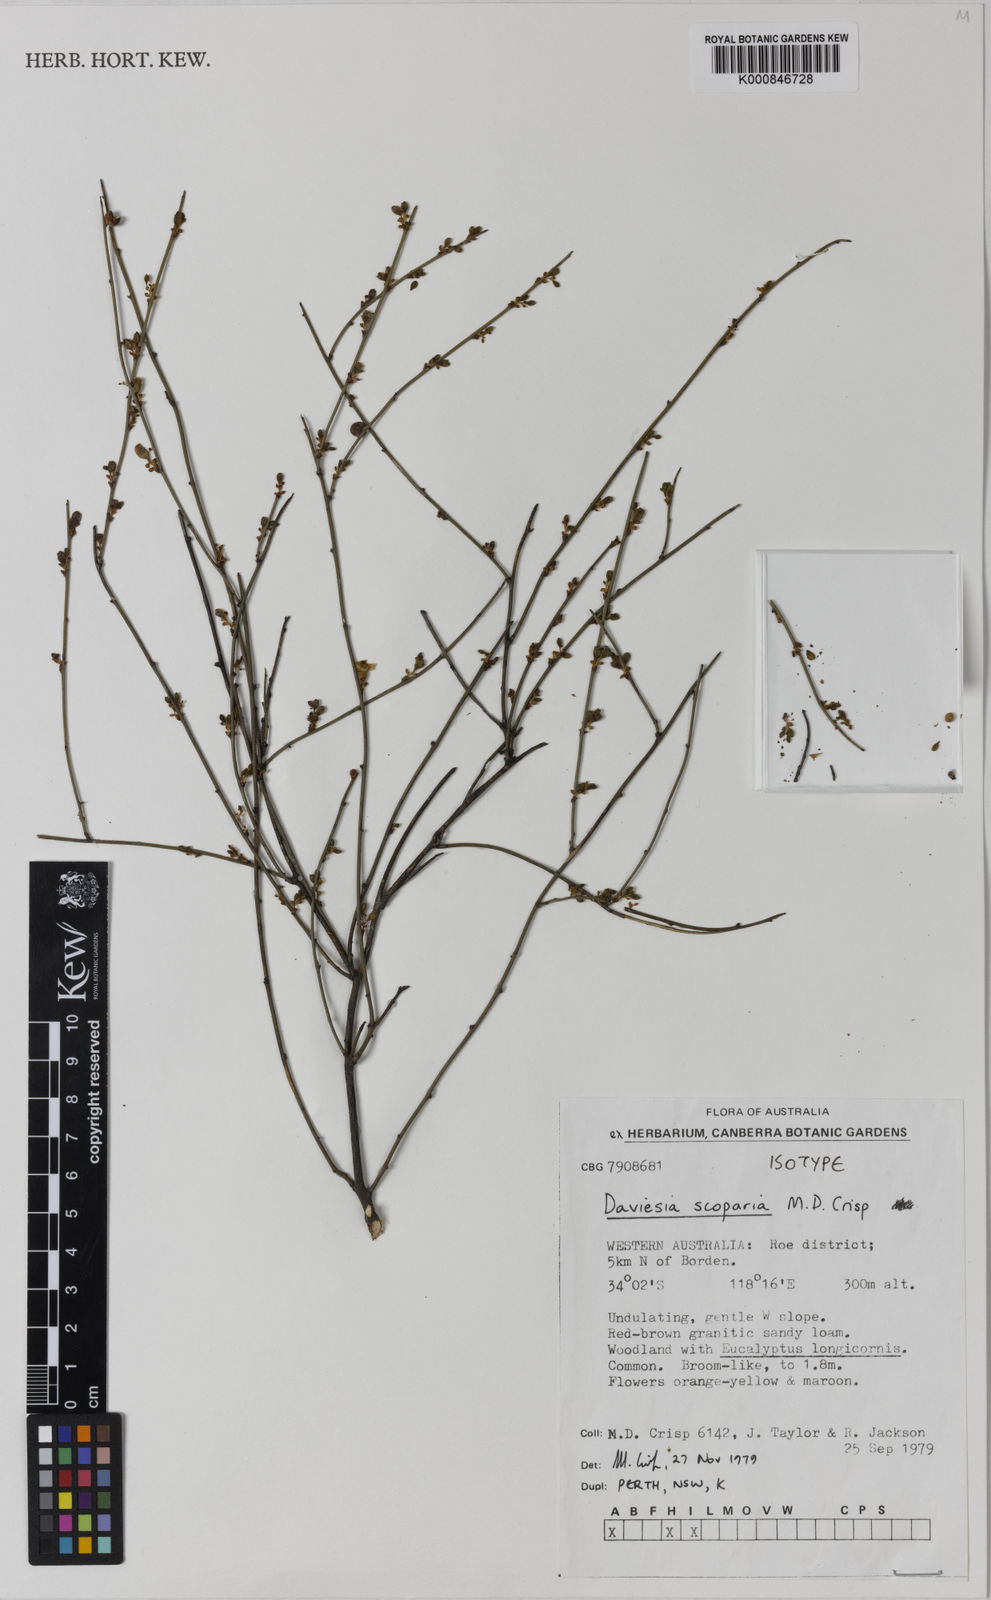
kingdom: Plantae
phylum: Tracheophyta
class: Magnoliopsida
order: Fabales
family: Fabaceae
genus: Daviesia
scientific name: Daviesia scoparia
